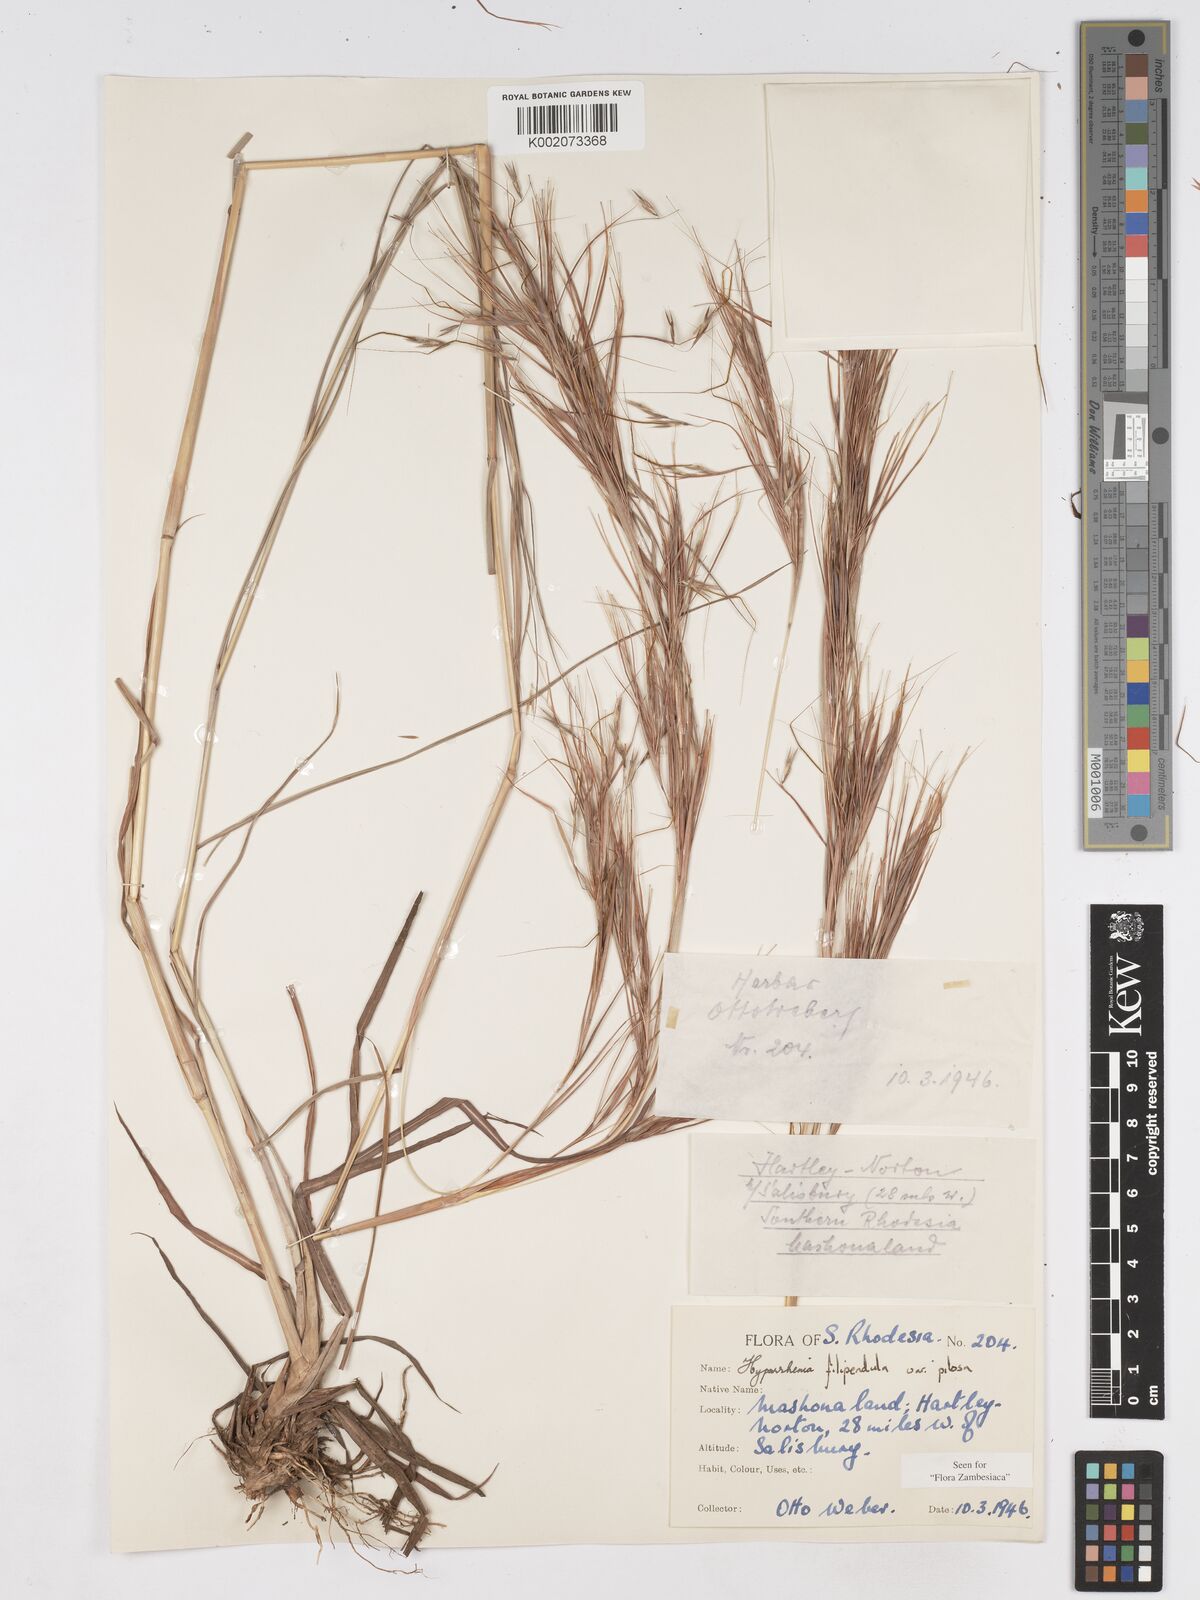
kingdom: Plantae
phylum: Tracheophyta
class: Liliopsida
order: Poales
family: Poaceae
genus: Hyparrhenia
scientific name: Hyparrhenia filipendula
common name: Tambookie grass
